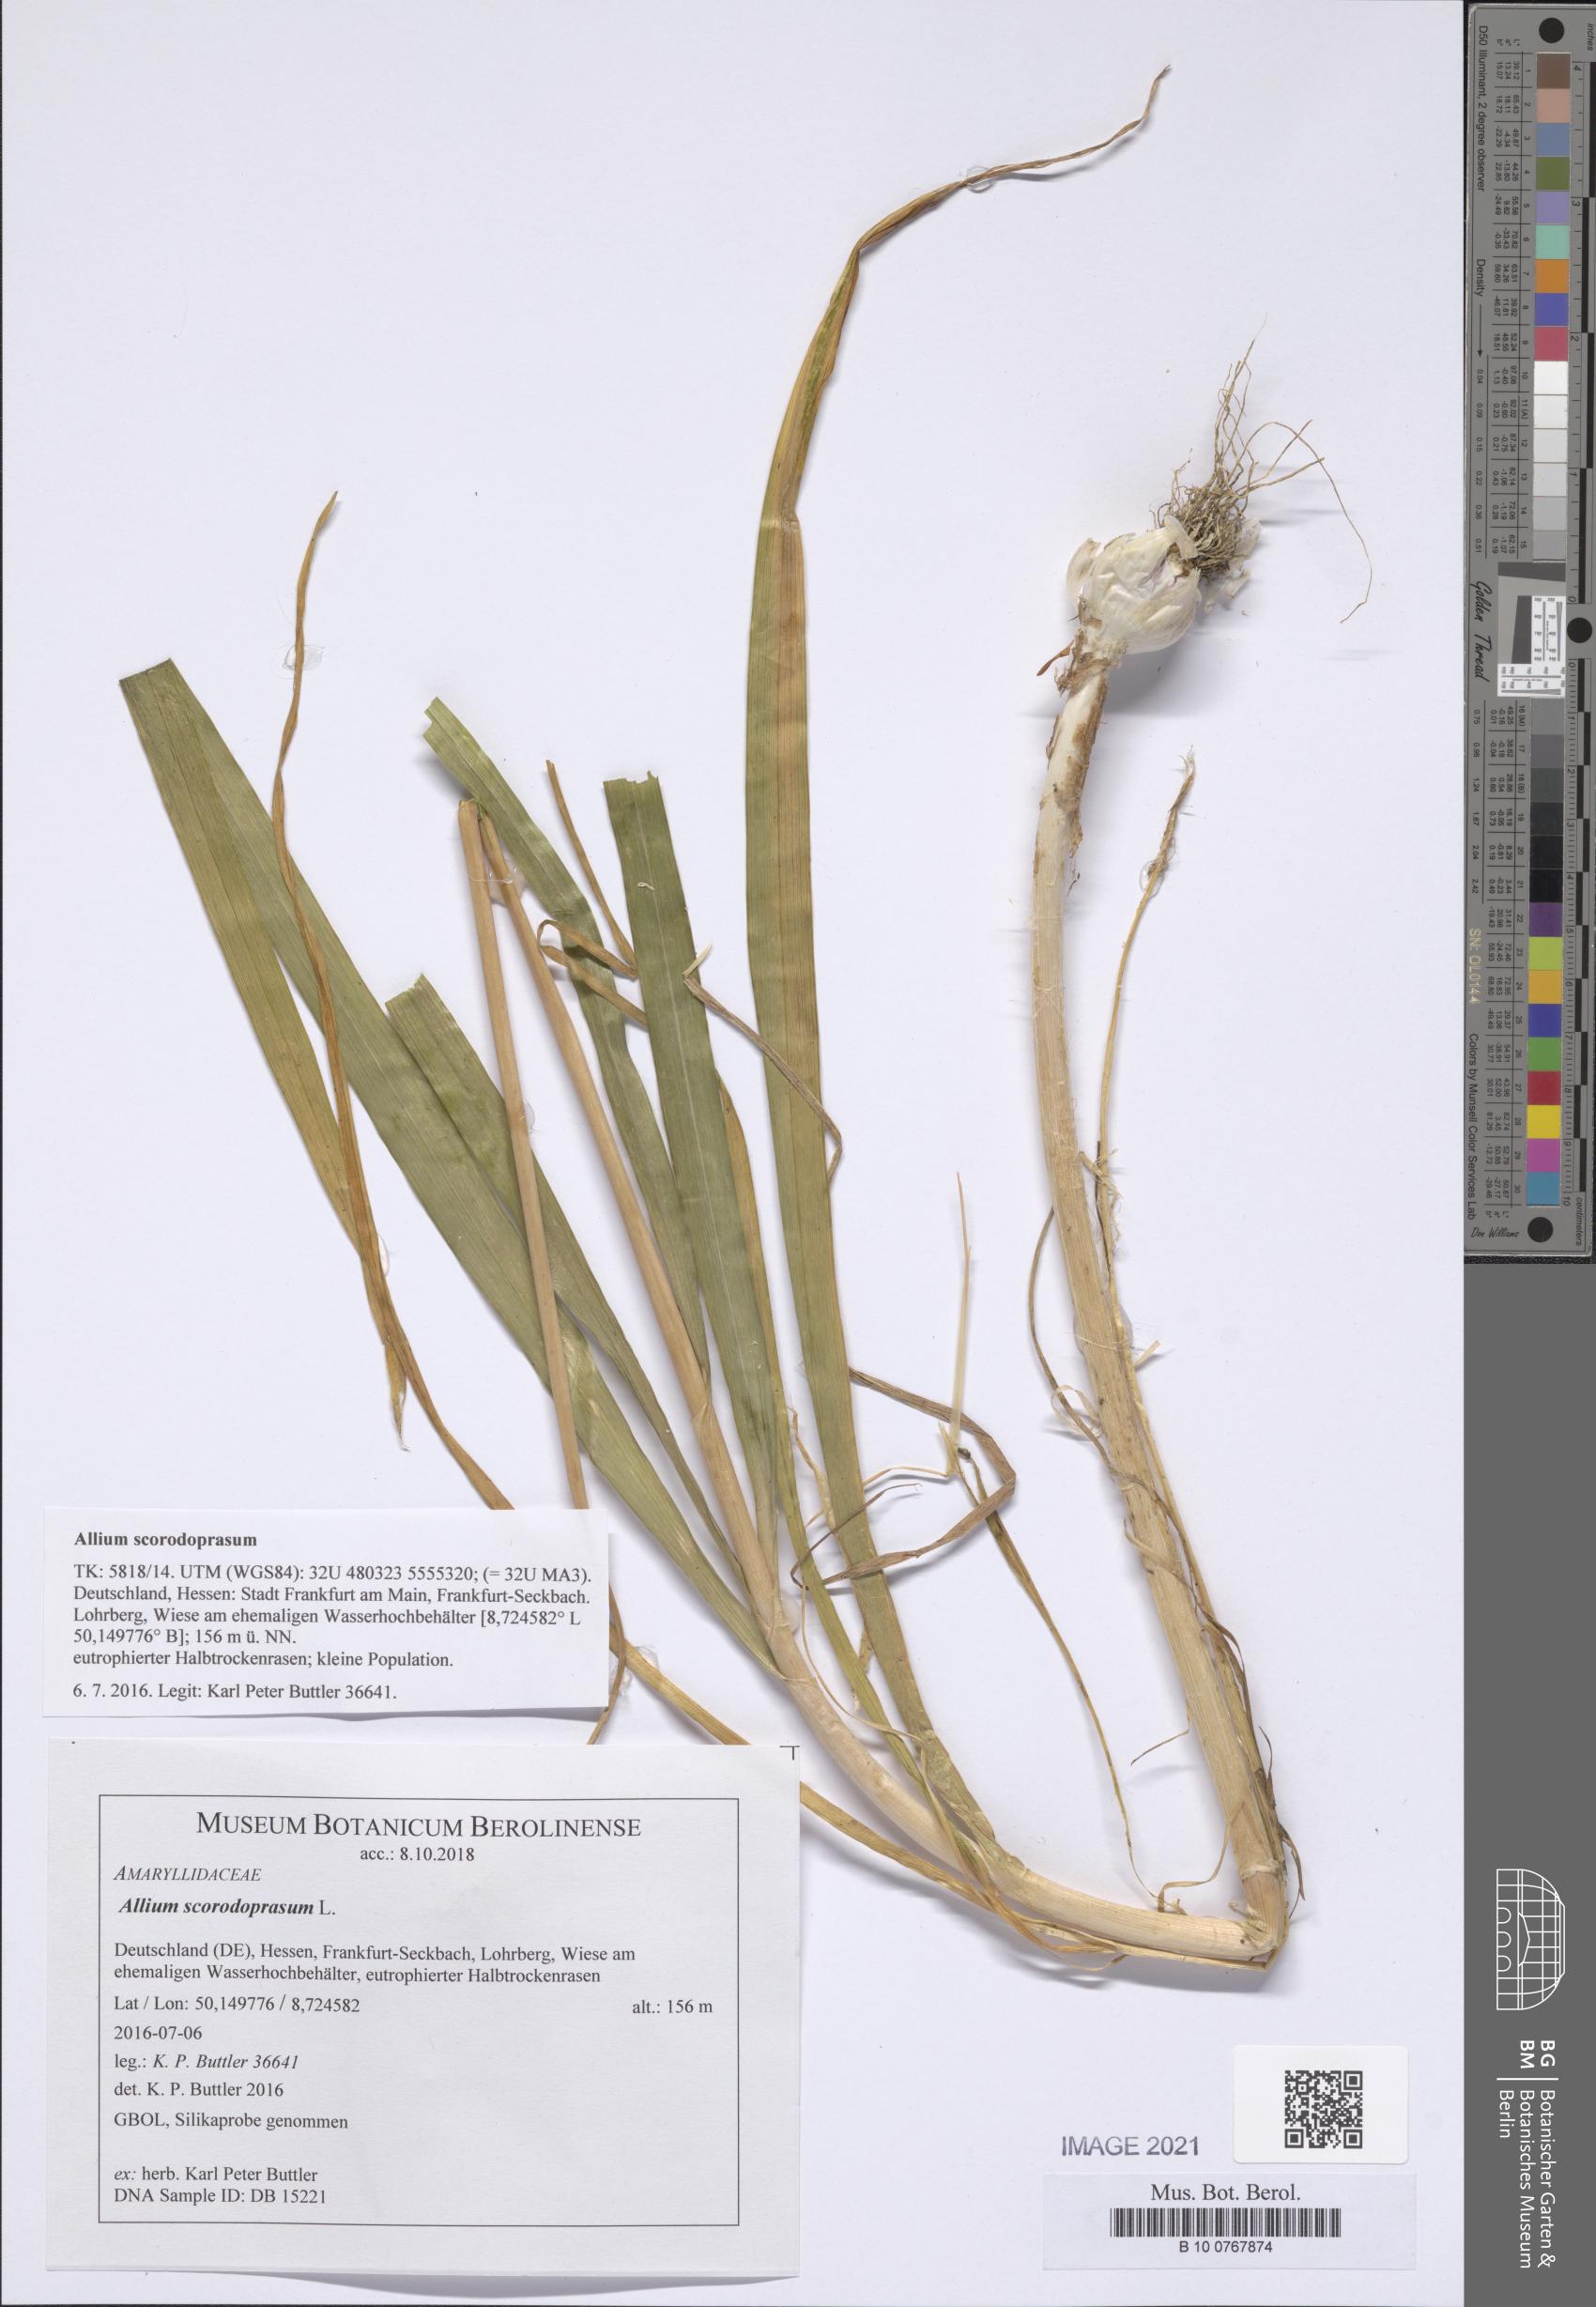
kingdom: Plantae
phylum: Tracheophyta
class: Liliopsida
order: Asparagales
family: Amaryllidaceae
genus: Allium
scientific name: Allium scorodoprasum
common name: Sand leek
